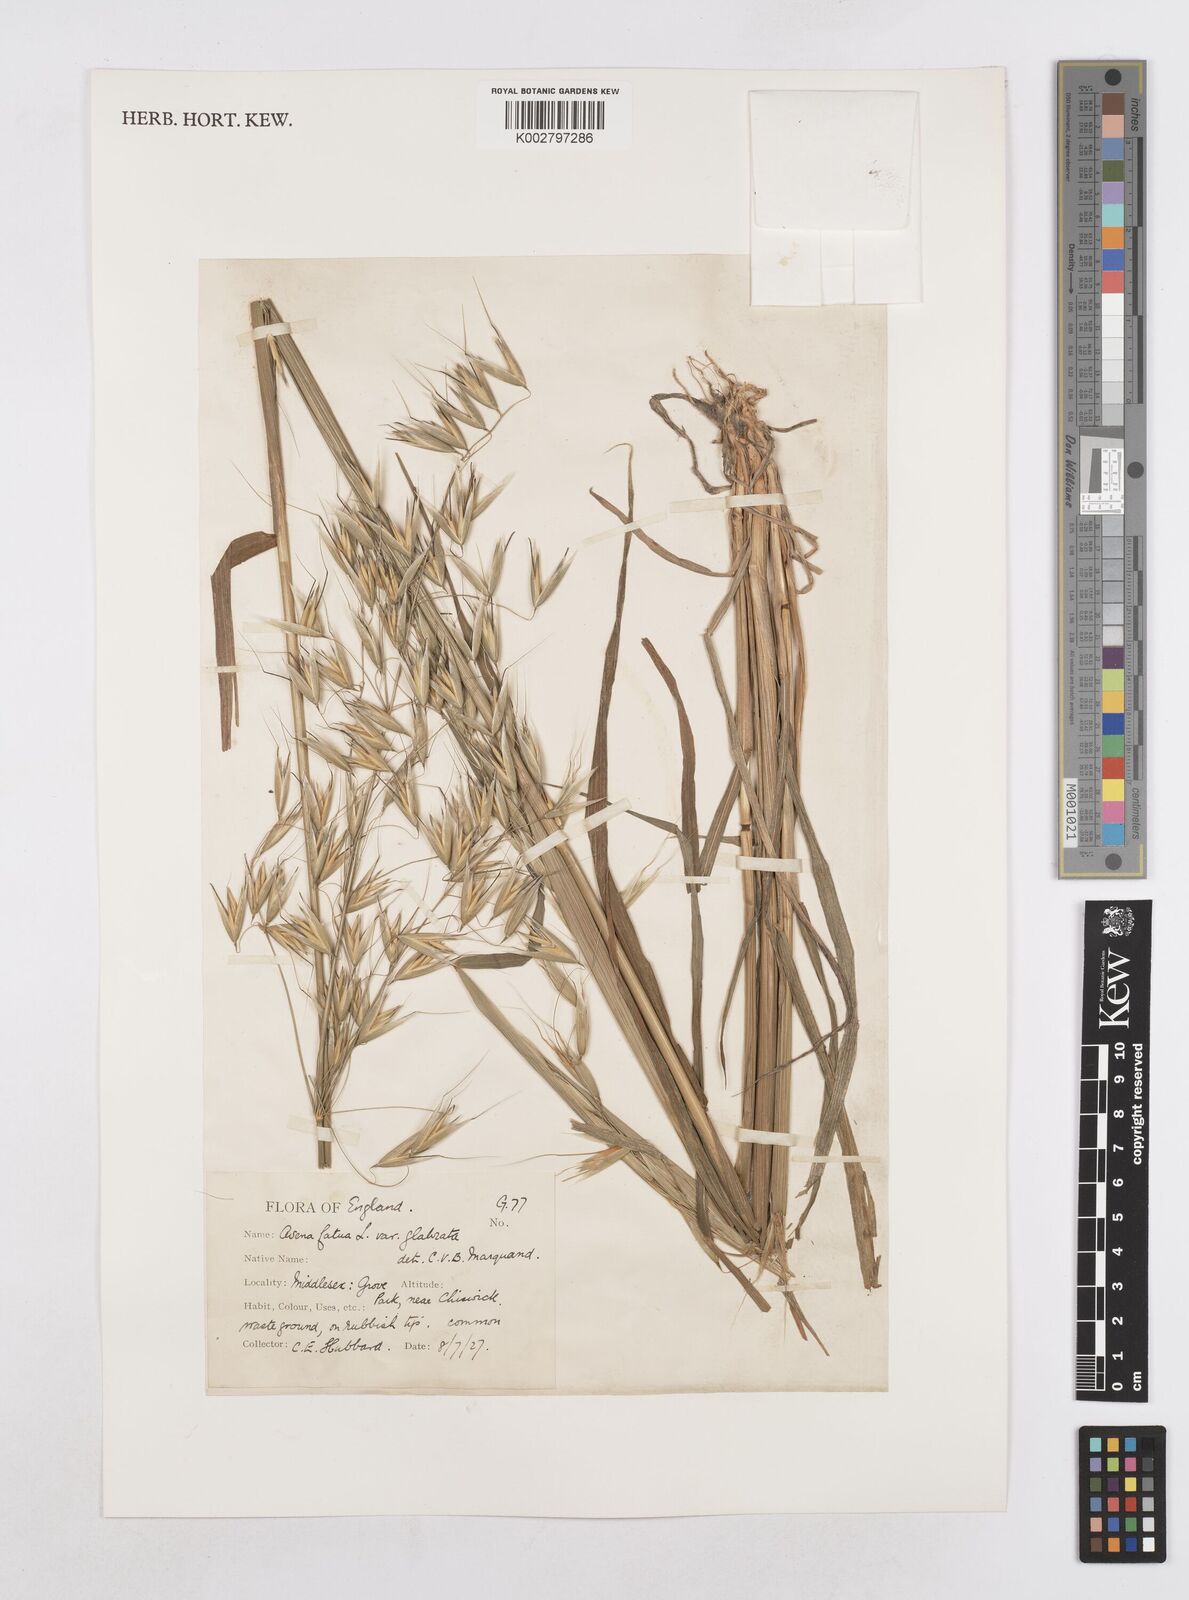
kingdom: Plantae
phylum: Tracheophyta
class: Liliopsida
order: Poales
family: Poaceae
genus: Avena
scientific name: Avena fatua
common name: Wild oat
